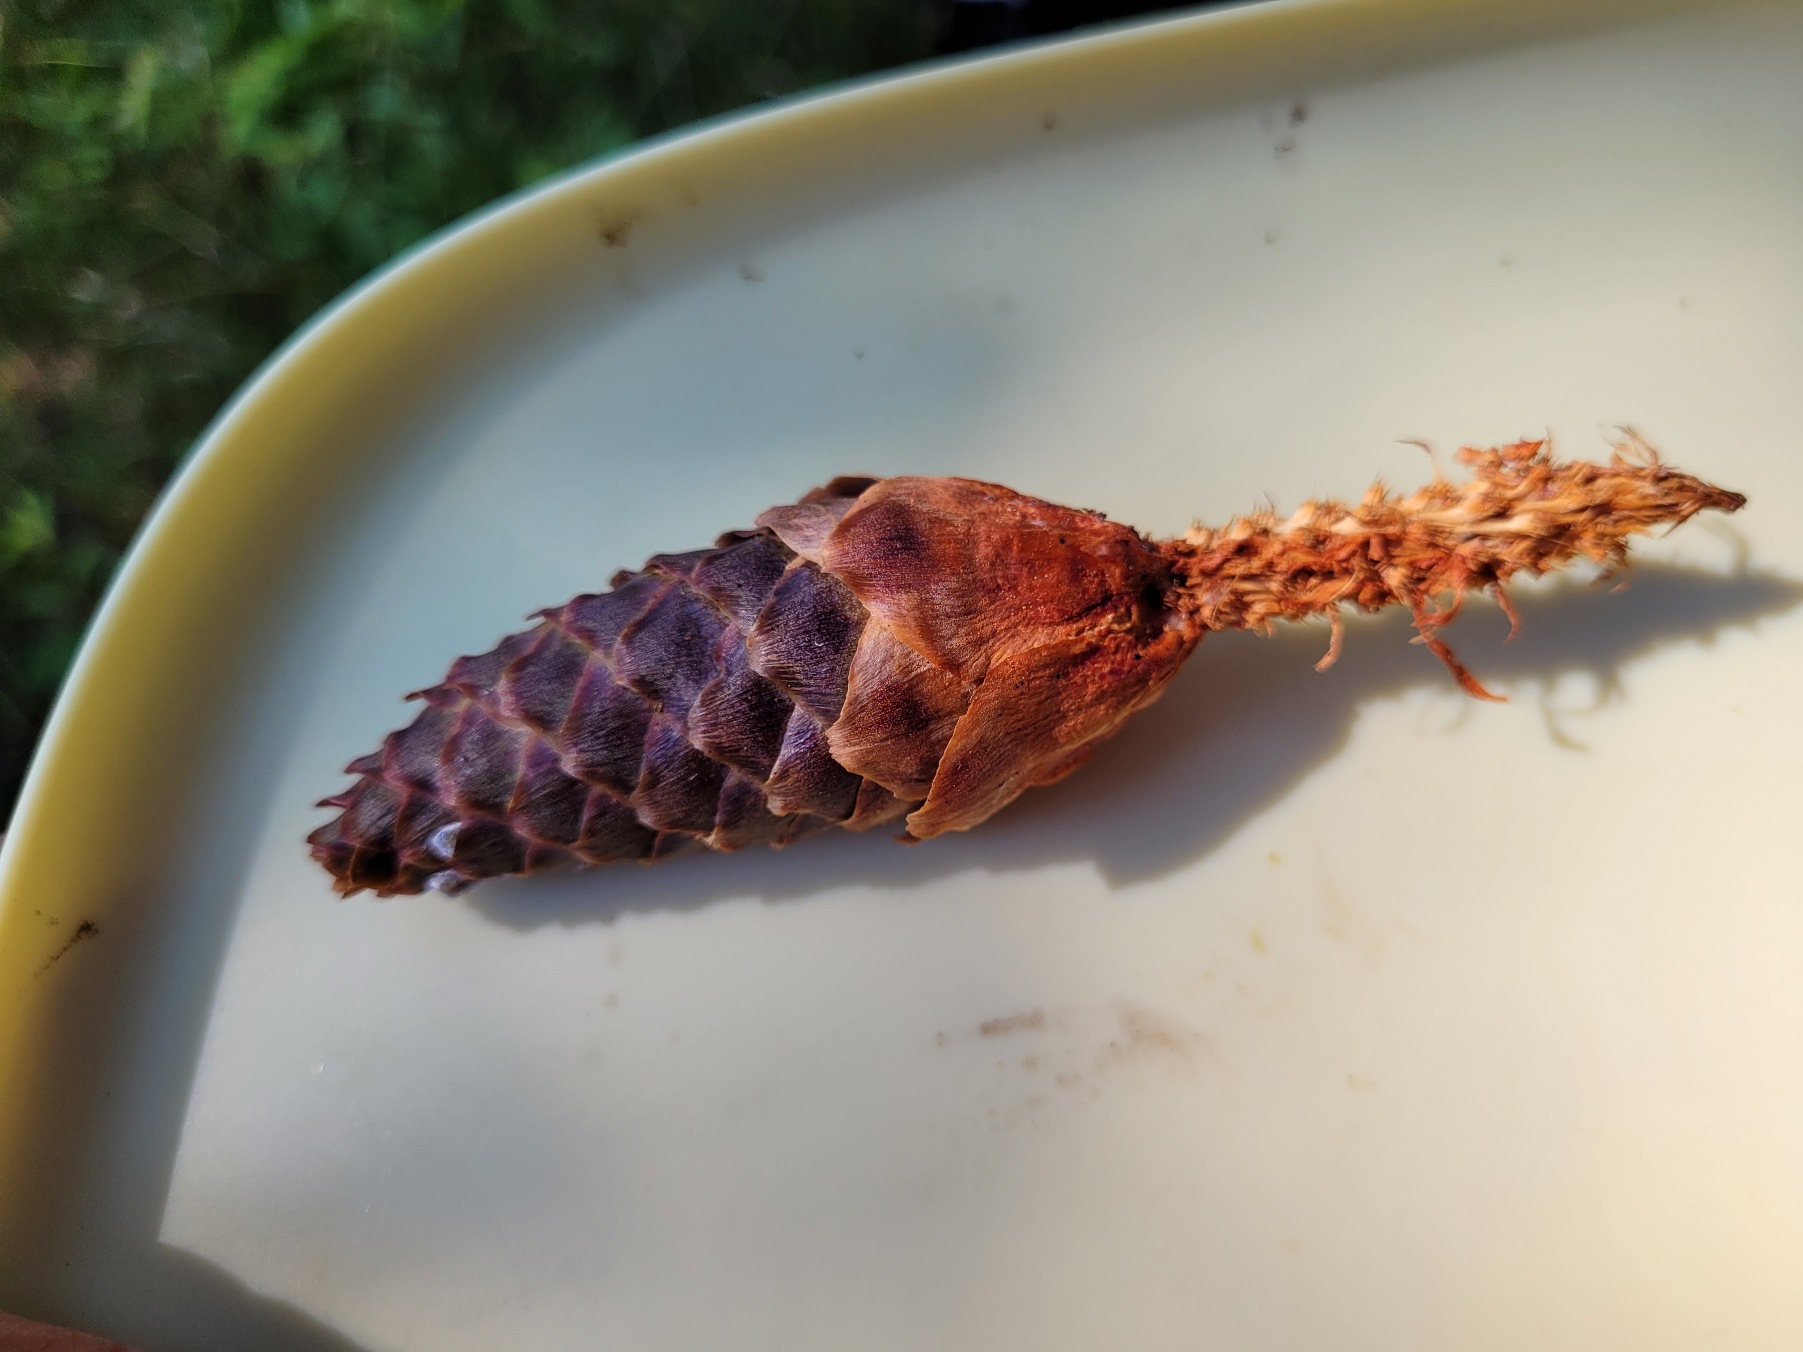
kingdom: Animalia
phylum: Chordata
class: Mammalia
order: Rodentia
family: Sciuridae
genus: Sciurus
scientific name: Sciurus vulgaris
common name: Egern
